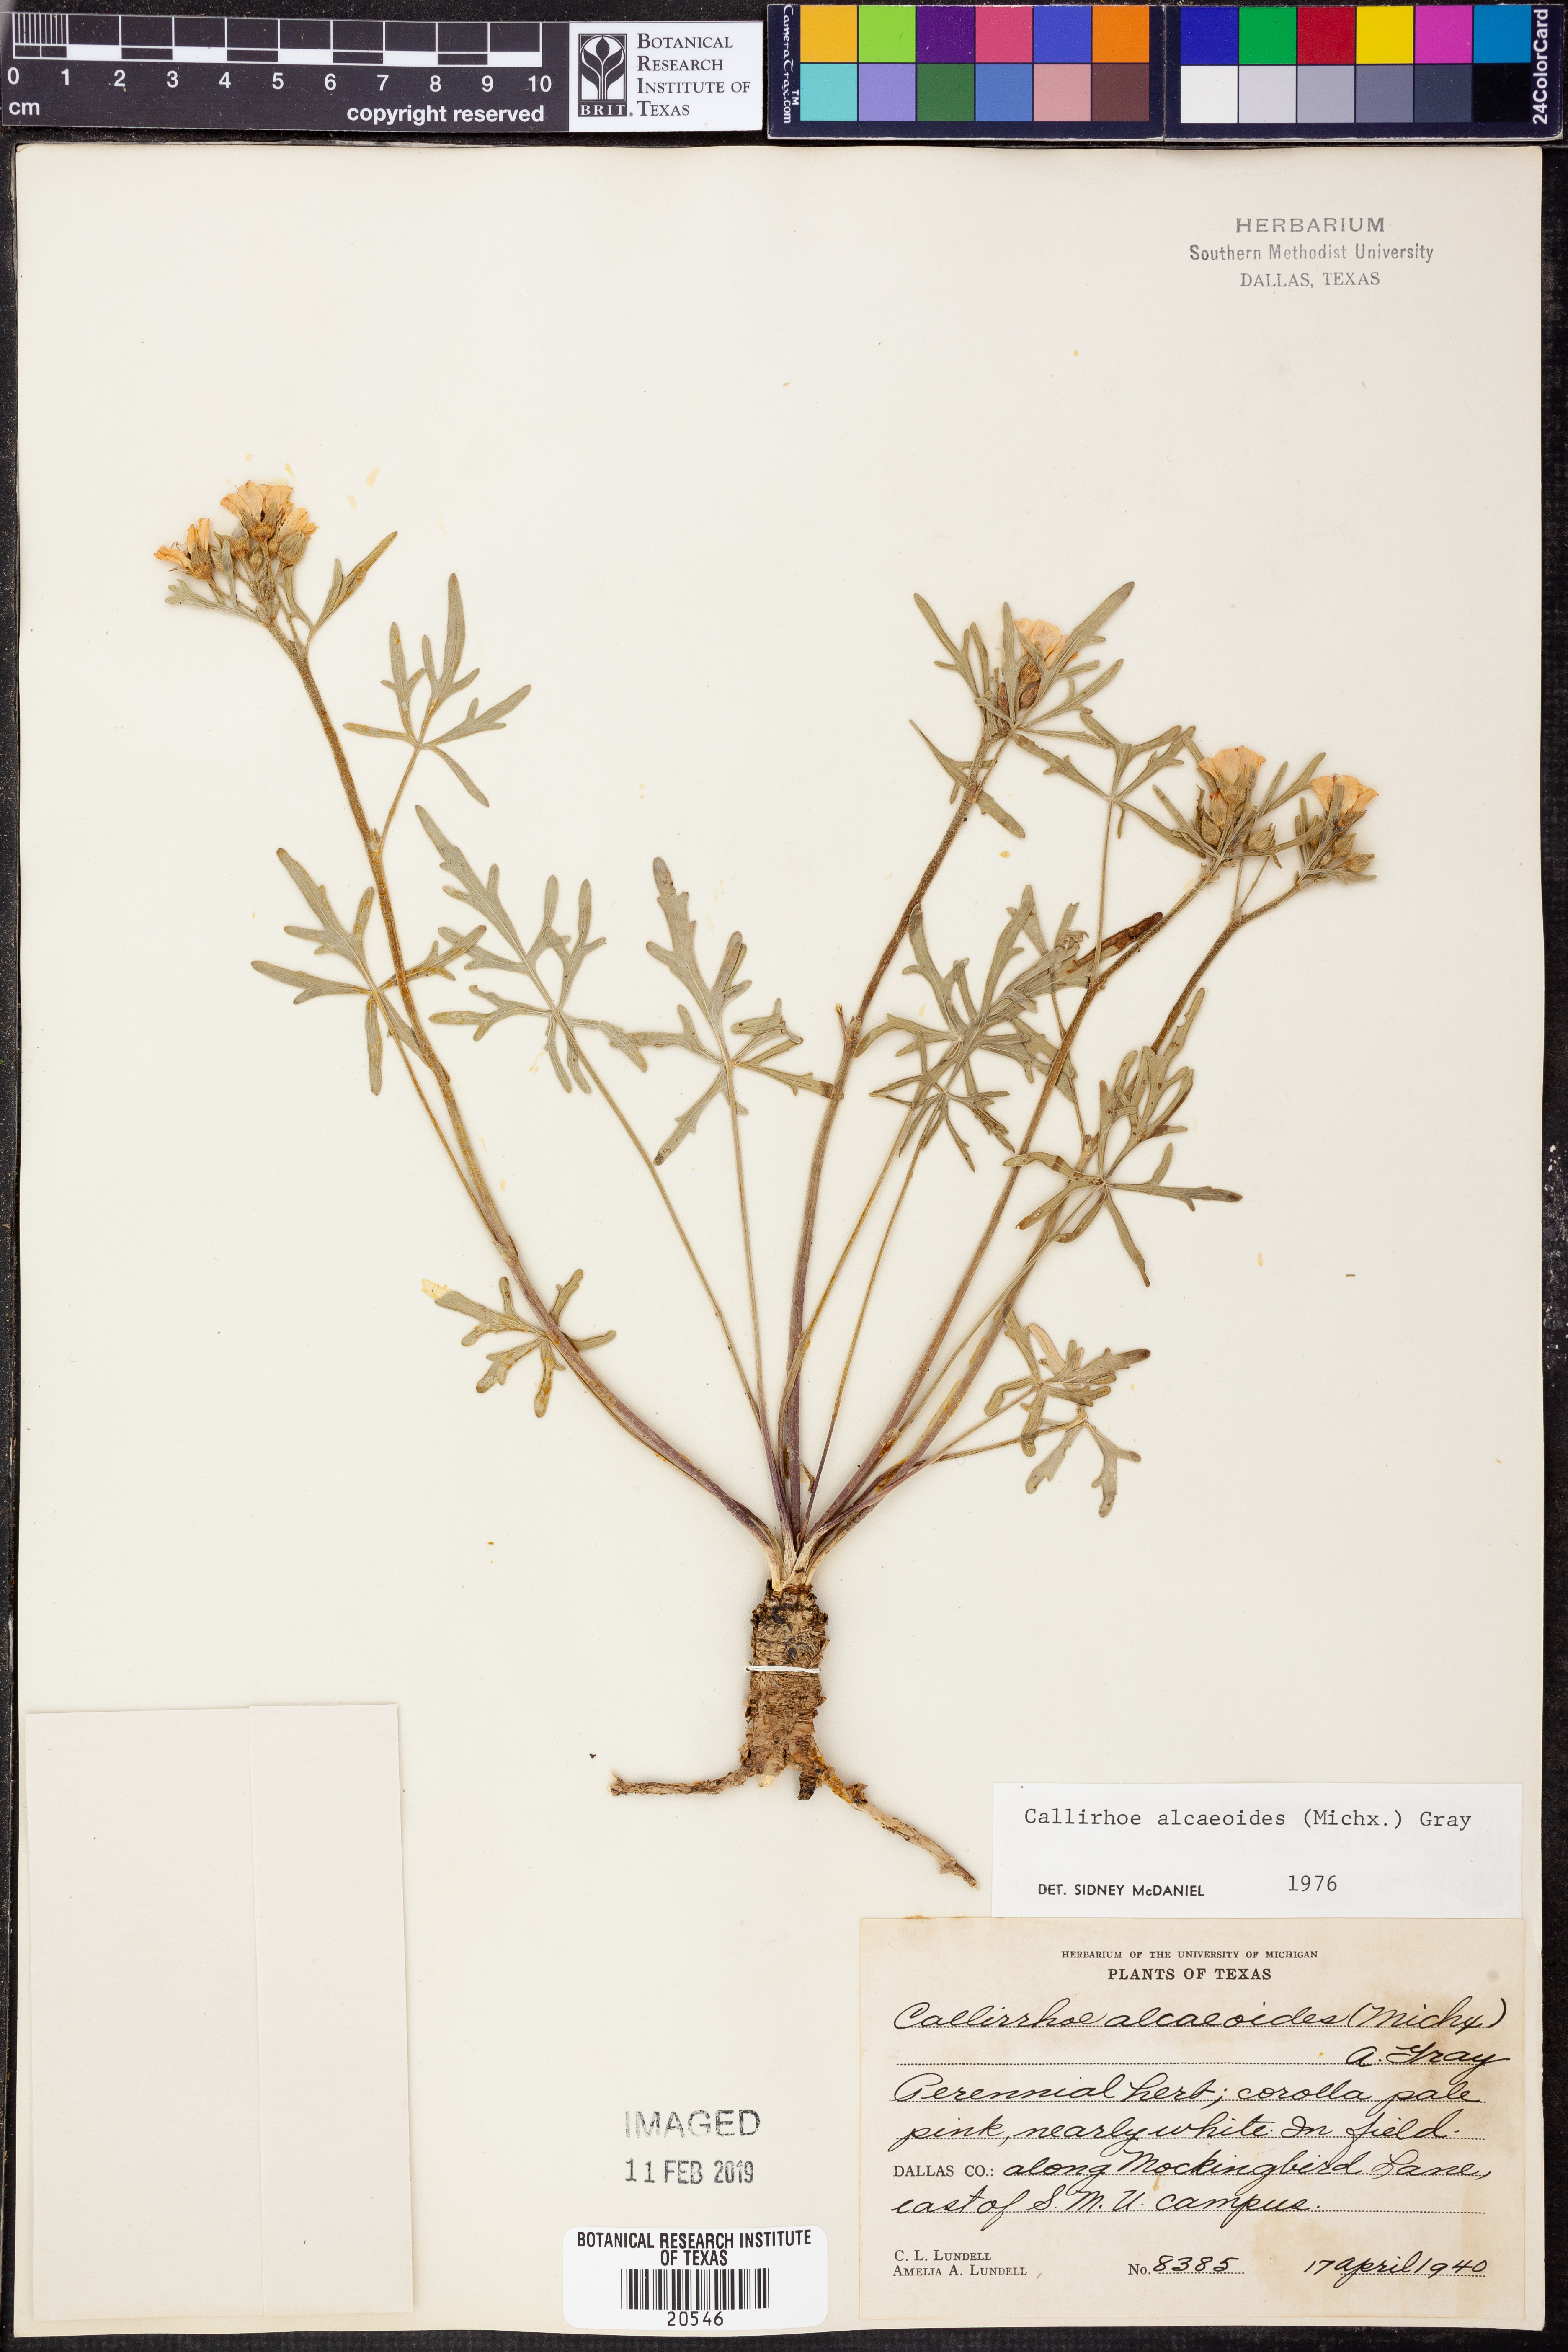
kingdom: Plantae
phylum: Tracheophyta
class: Magnoliopsida
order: Malvales
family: Malvaceae
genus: Callirhoe
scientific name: Callirhoe alcaeoides
